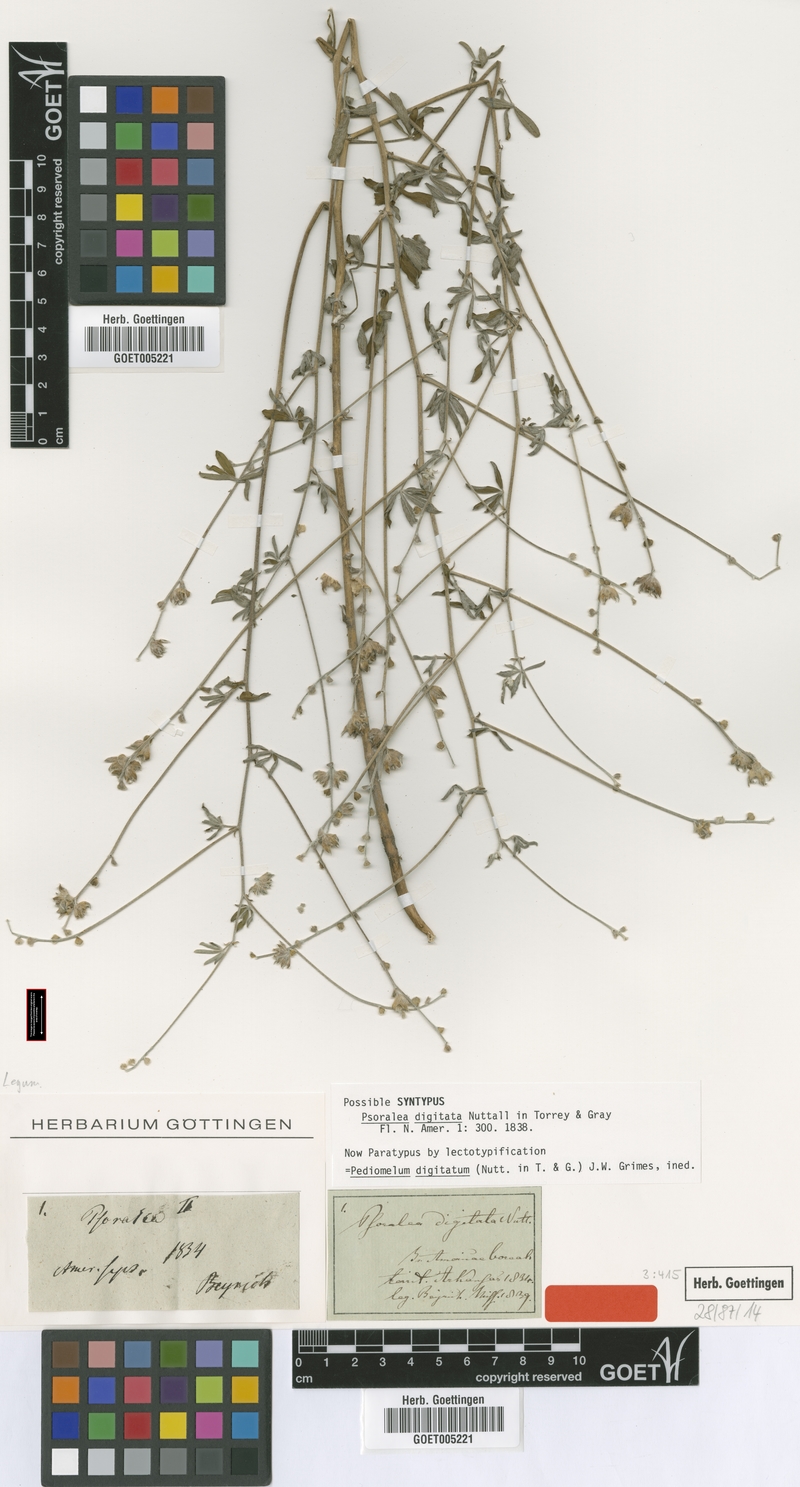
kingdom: Plantae
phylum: Tracheophyta
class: Magnoliopsida
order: Fabales
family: Fabaceae
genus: Pediomelum
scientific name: Pediomelum digitatum
